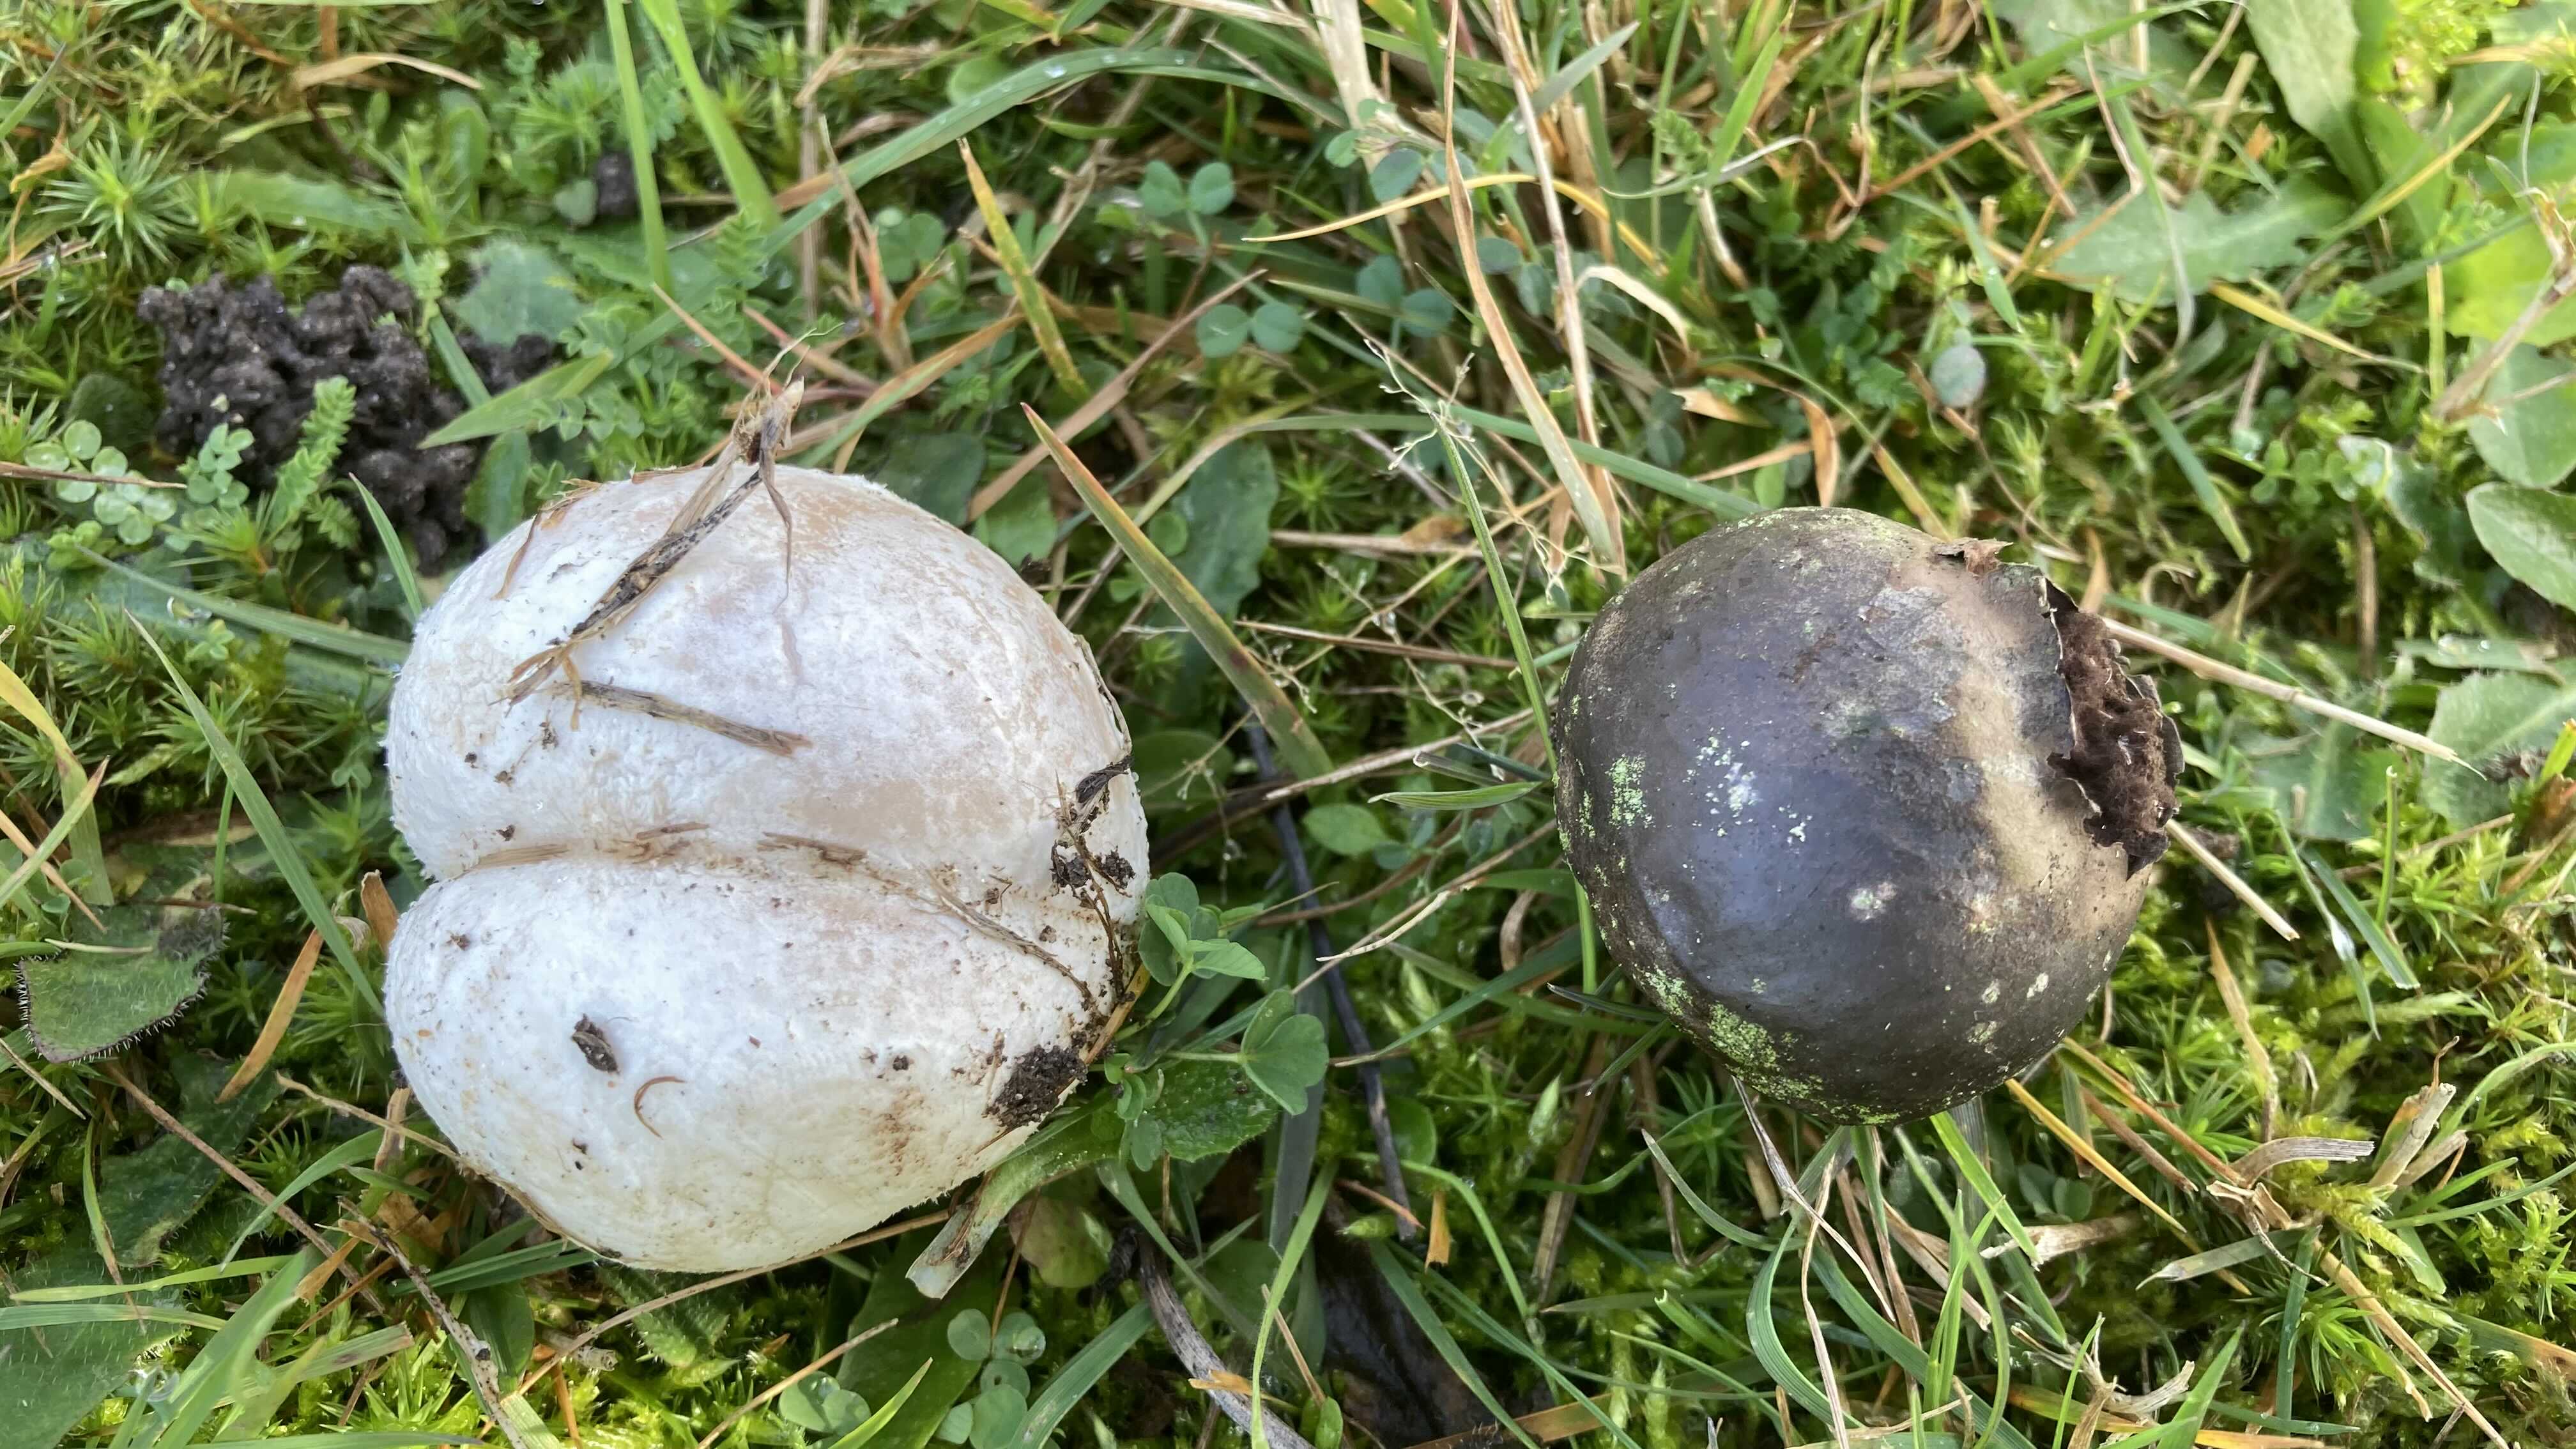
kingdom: Fungi
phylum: Basidiomycota
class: Agaricomycetes
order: Agaricales
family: Lycoperdaceae
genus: Bovista
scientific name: Bovista nigrescens
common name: sortagtig bovist
